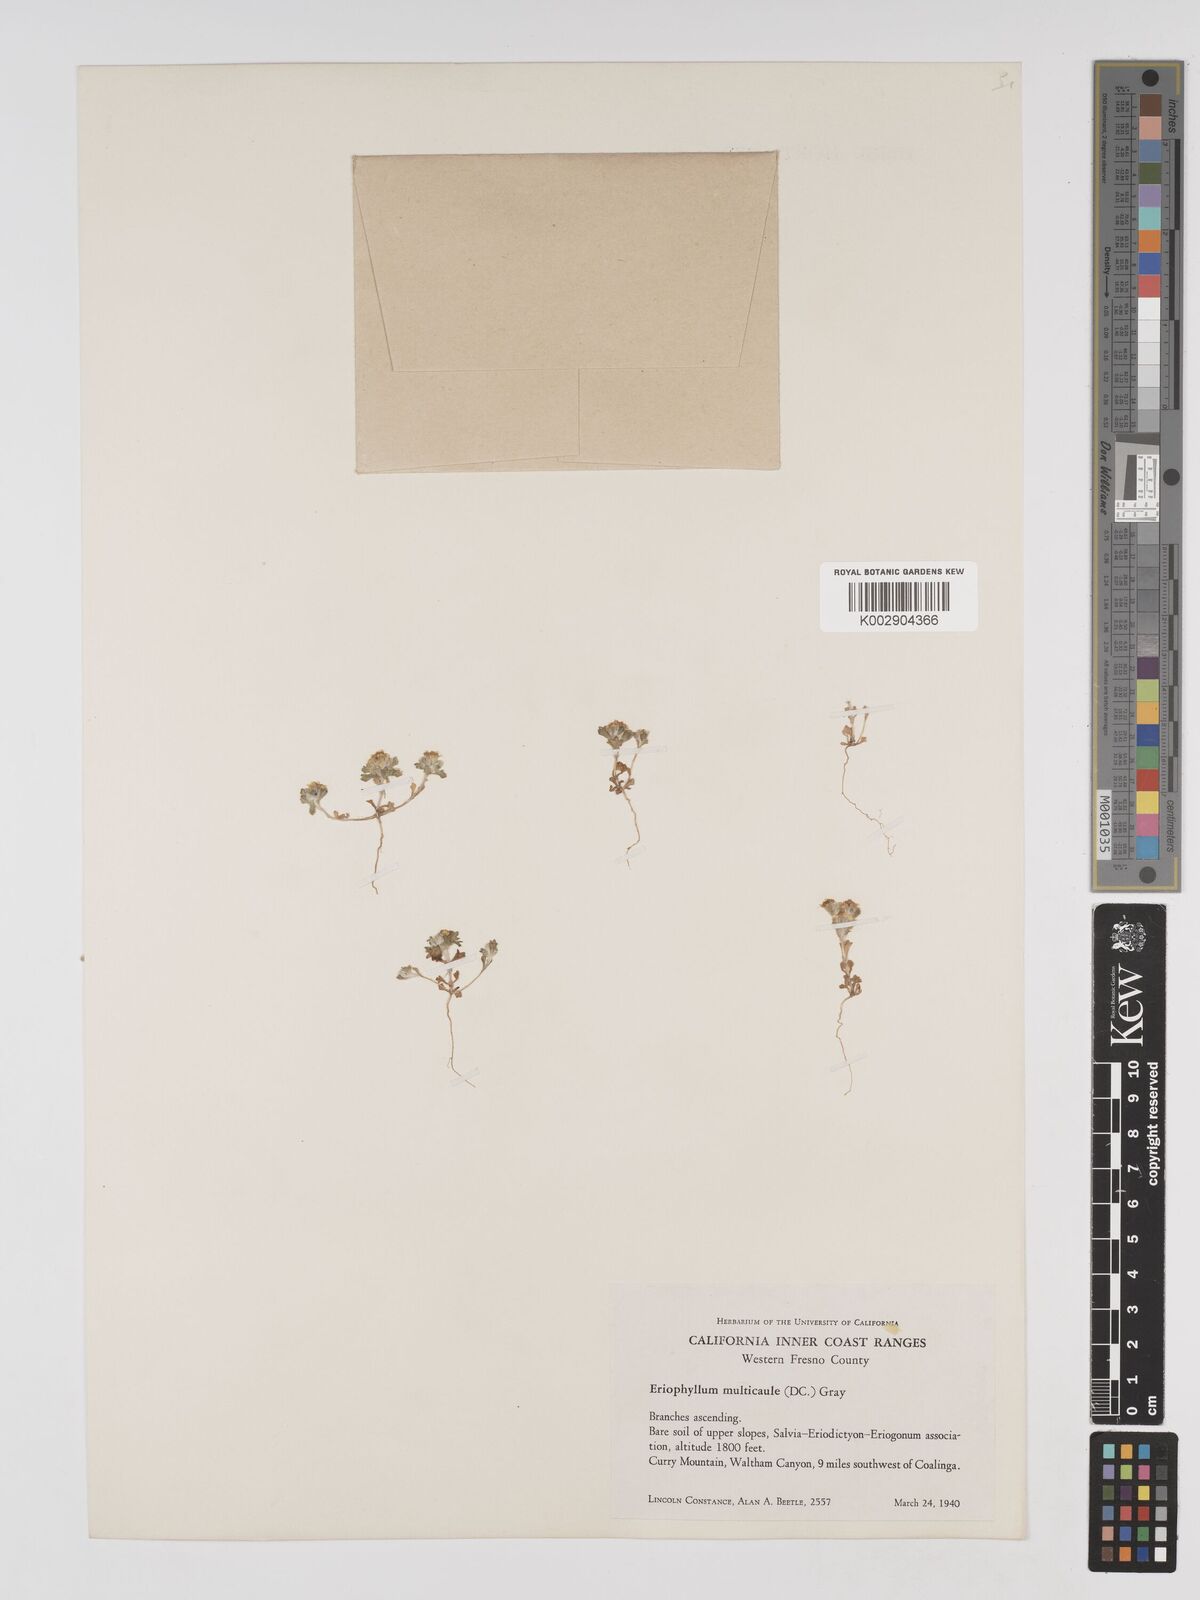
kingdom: Plantae
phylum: Tracheophyta
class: Magnoliopsida
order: Asterales
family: Asteraceae
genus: Eriophyllum
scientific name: Eriophyllum multicaule
